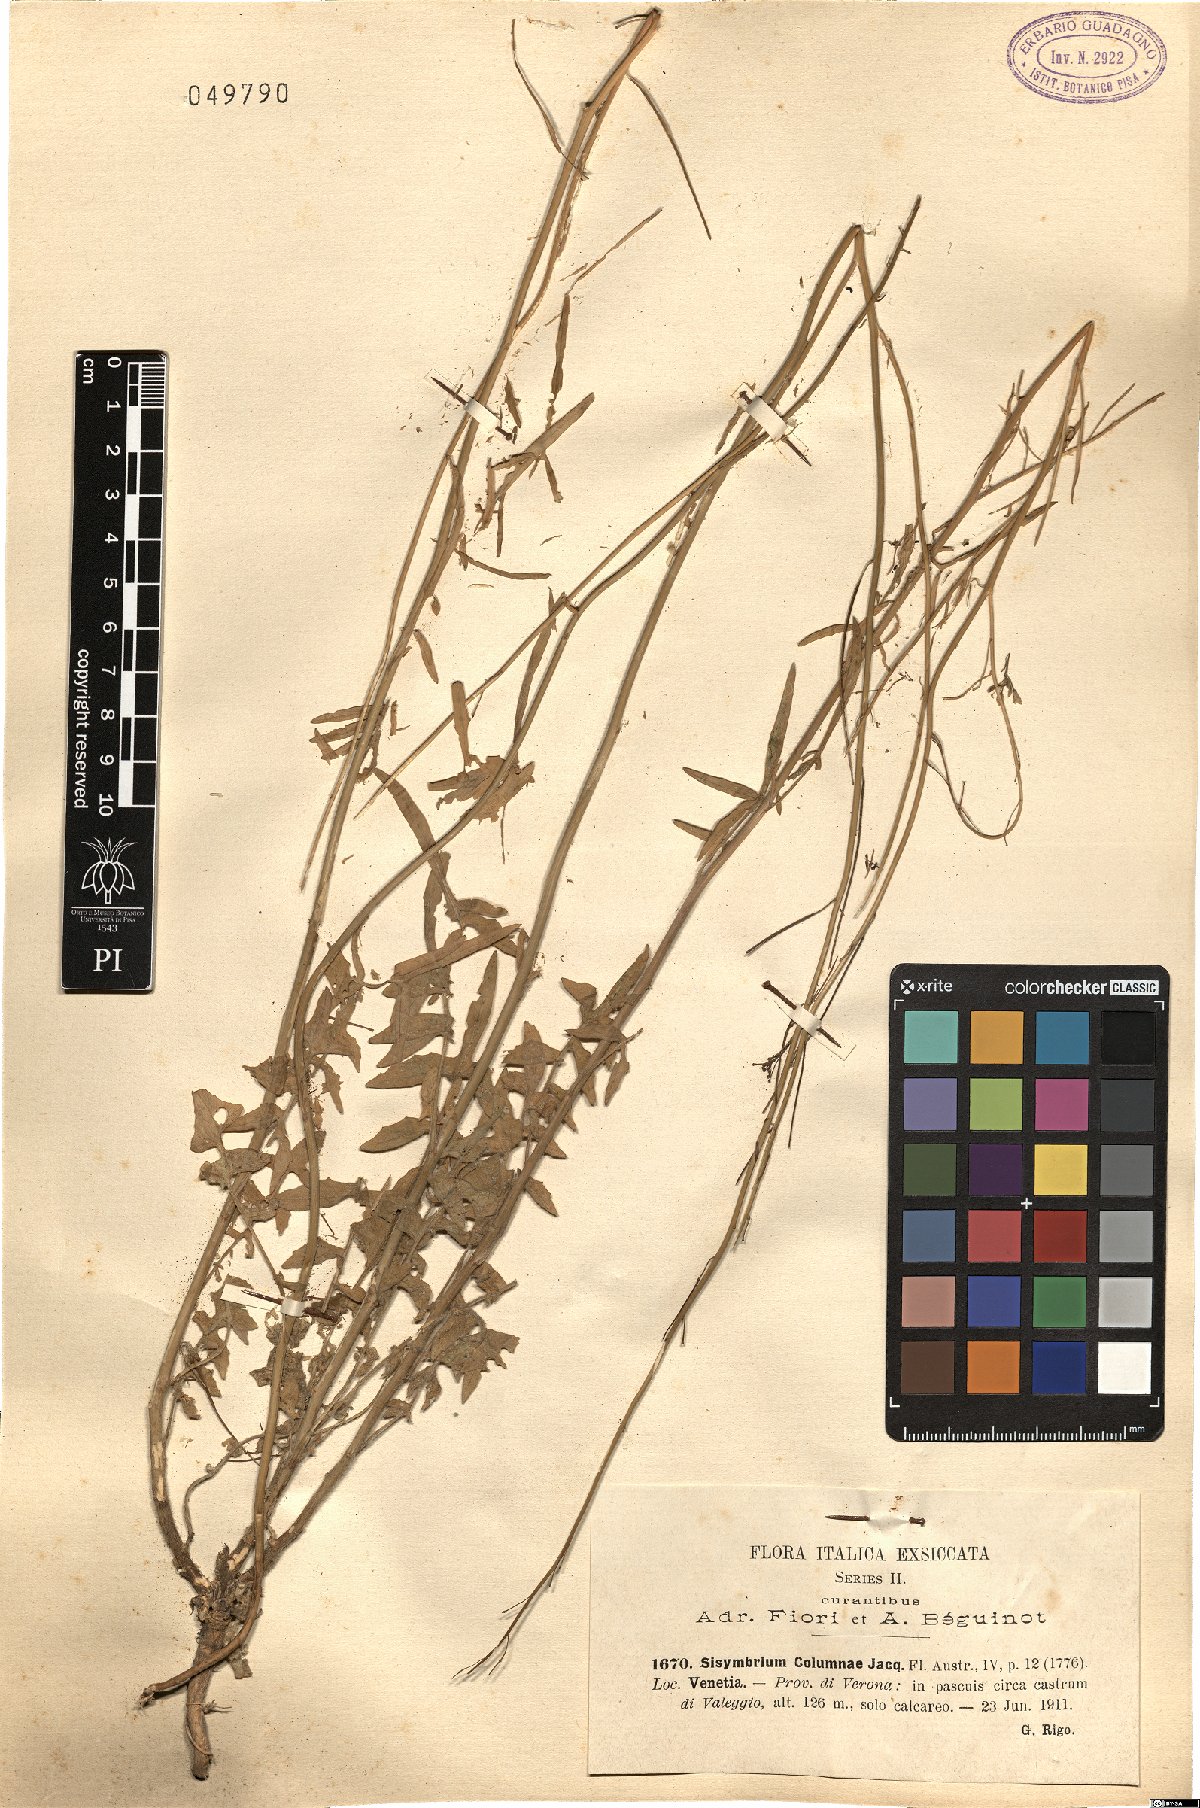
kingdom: Plantae
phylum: Tracheophyta
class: Magnoliopsida
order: Brassicales
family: Brassicaceae
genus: Sisymbrium
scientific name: Sisymbrium orientale
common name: Eastern rocket
